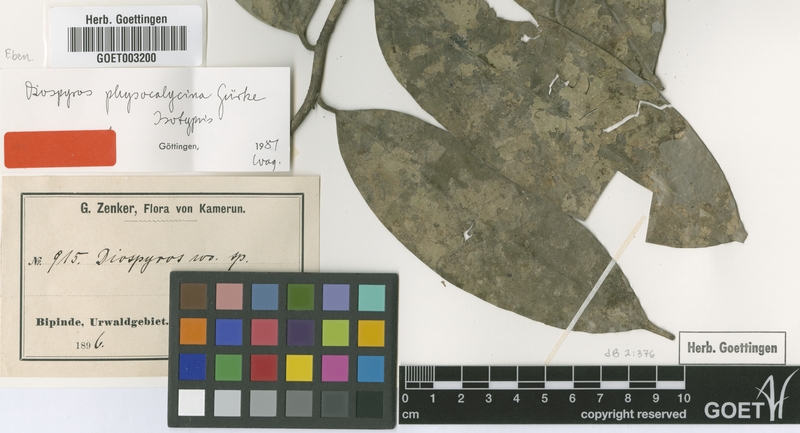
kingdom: Plantae
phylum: Tracheophyta
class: Magnoliopsida
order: Ericales
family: Ebenaceae
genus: Diospyros
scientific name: Diospyros physocalycina
